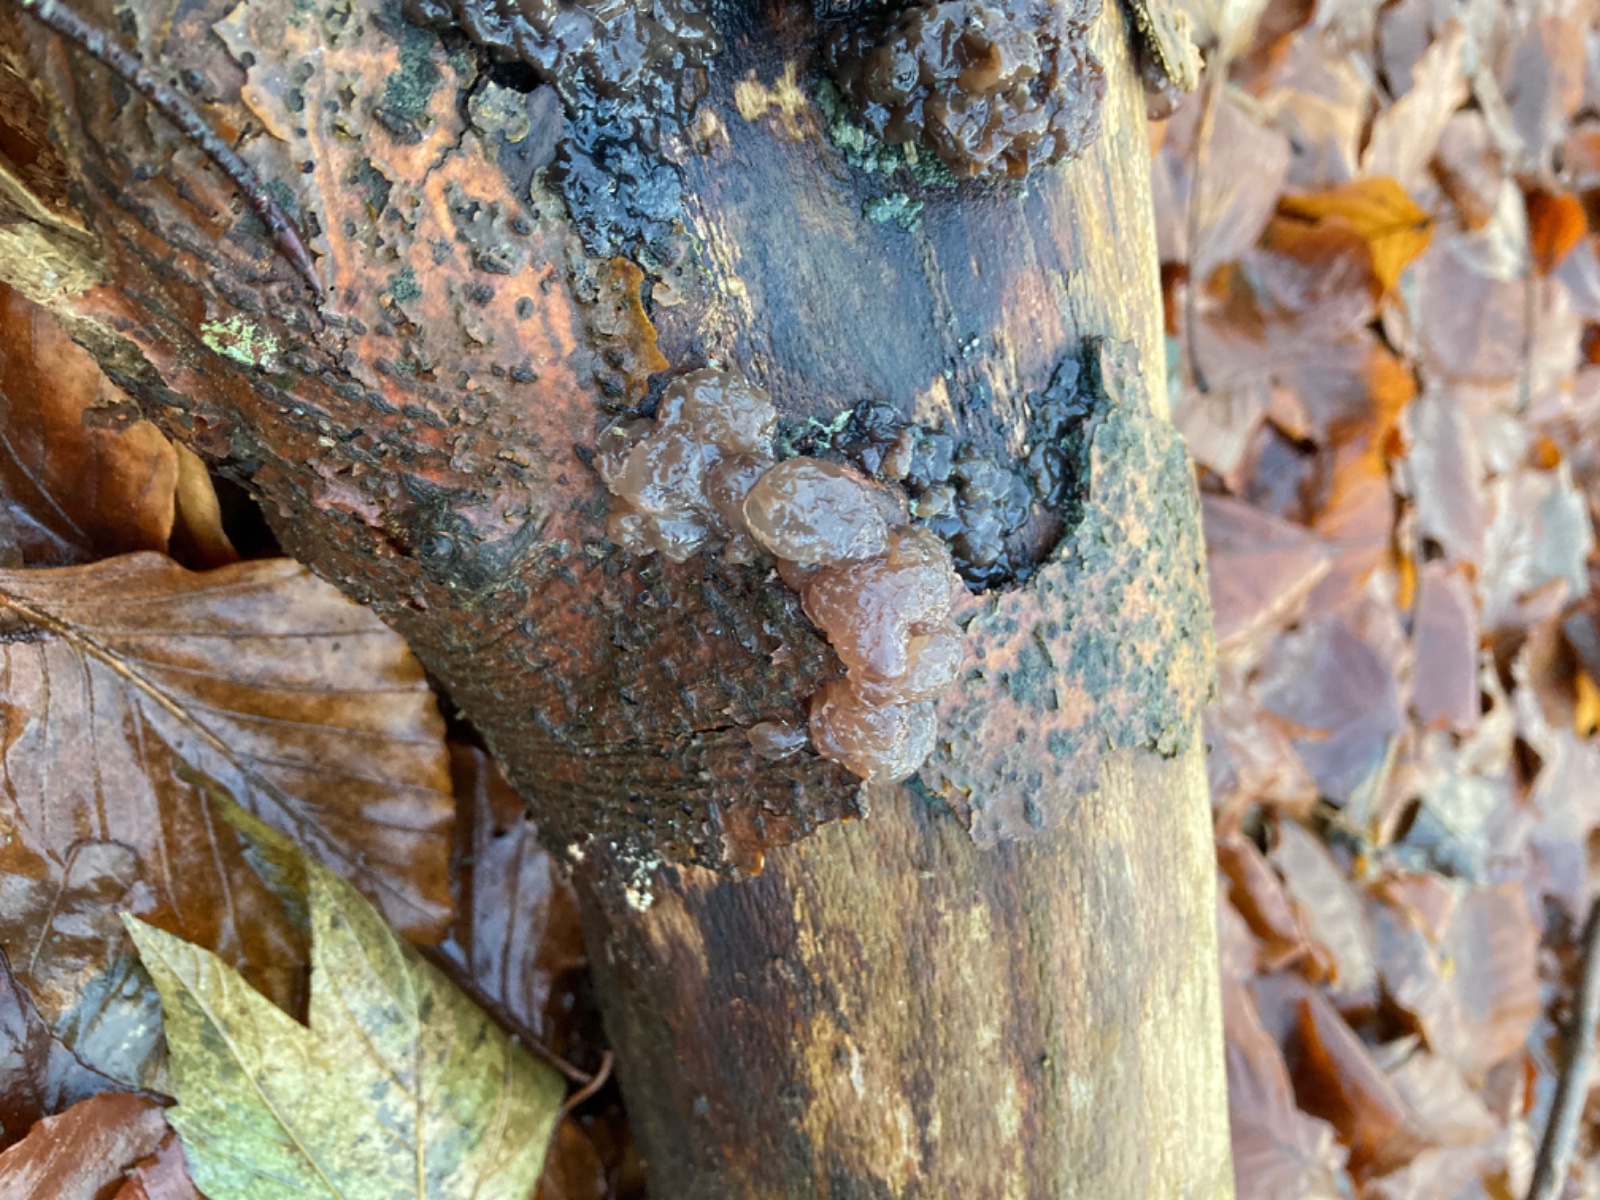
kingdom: Fungi
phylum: Basidiomycota
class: Agaricomycetes
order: Auriculariales
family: Auriculariaceae
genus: Exidia
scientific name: Exidia nigricans
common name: almindelig bævretop
